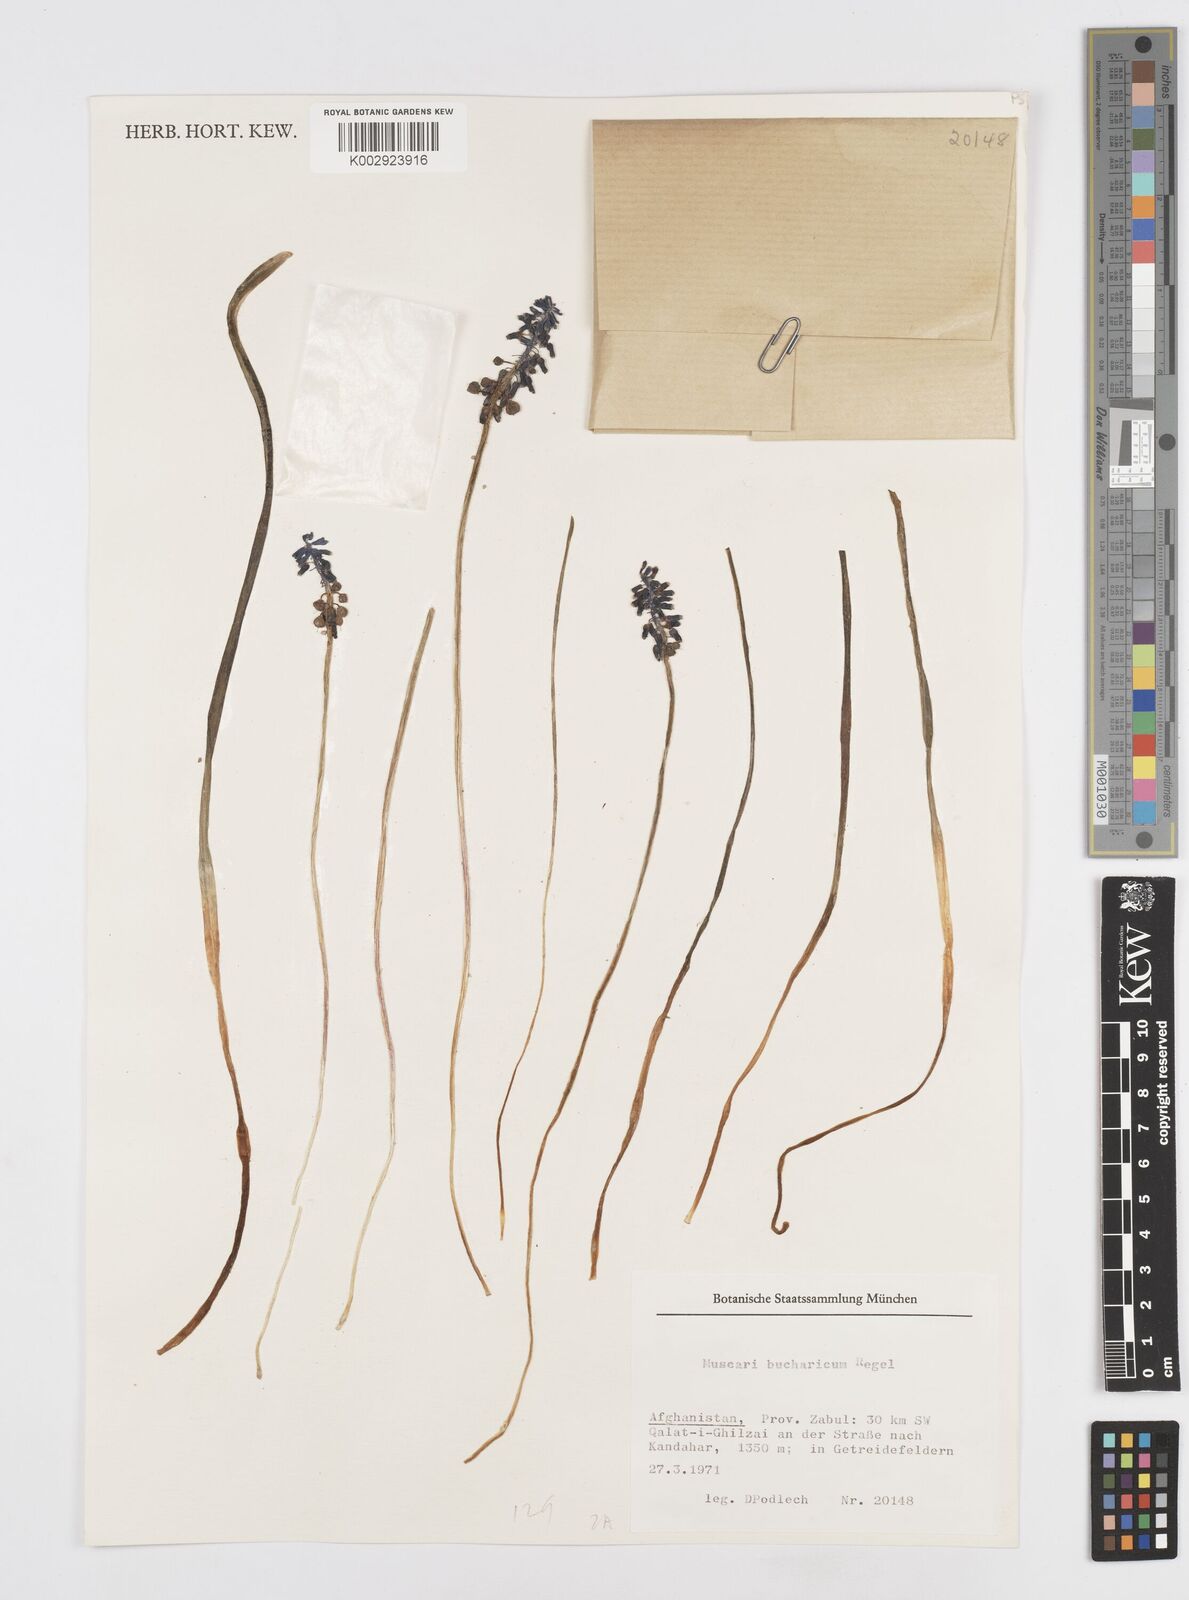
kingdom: Plantae
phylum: Tracheophyta
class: Liliopsida
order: Asparagales
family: Asparagaceae
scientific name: Asparagaceae
